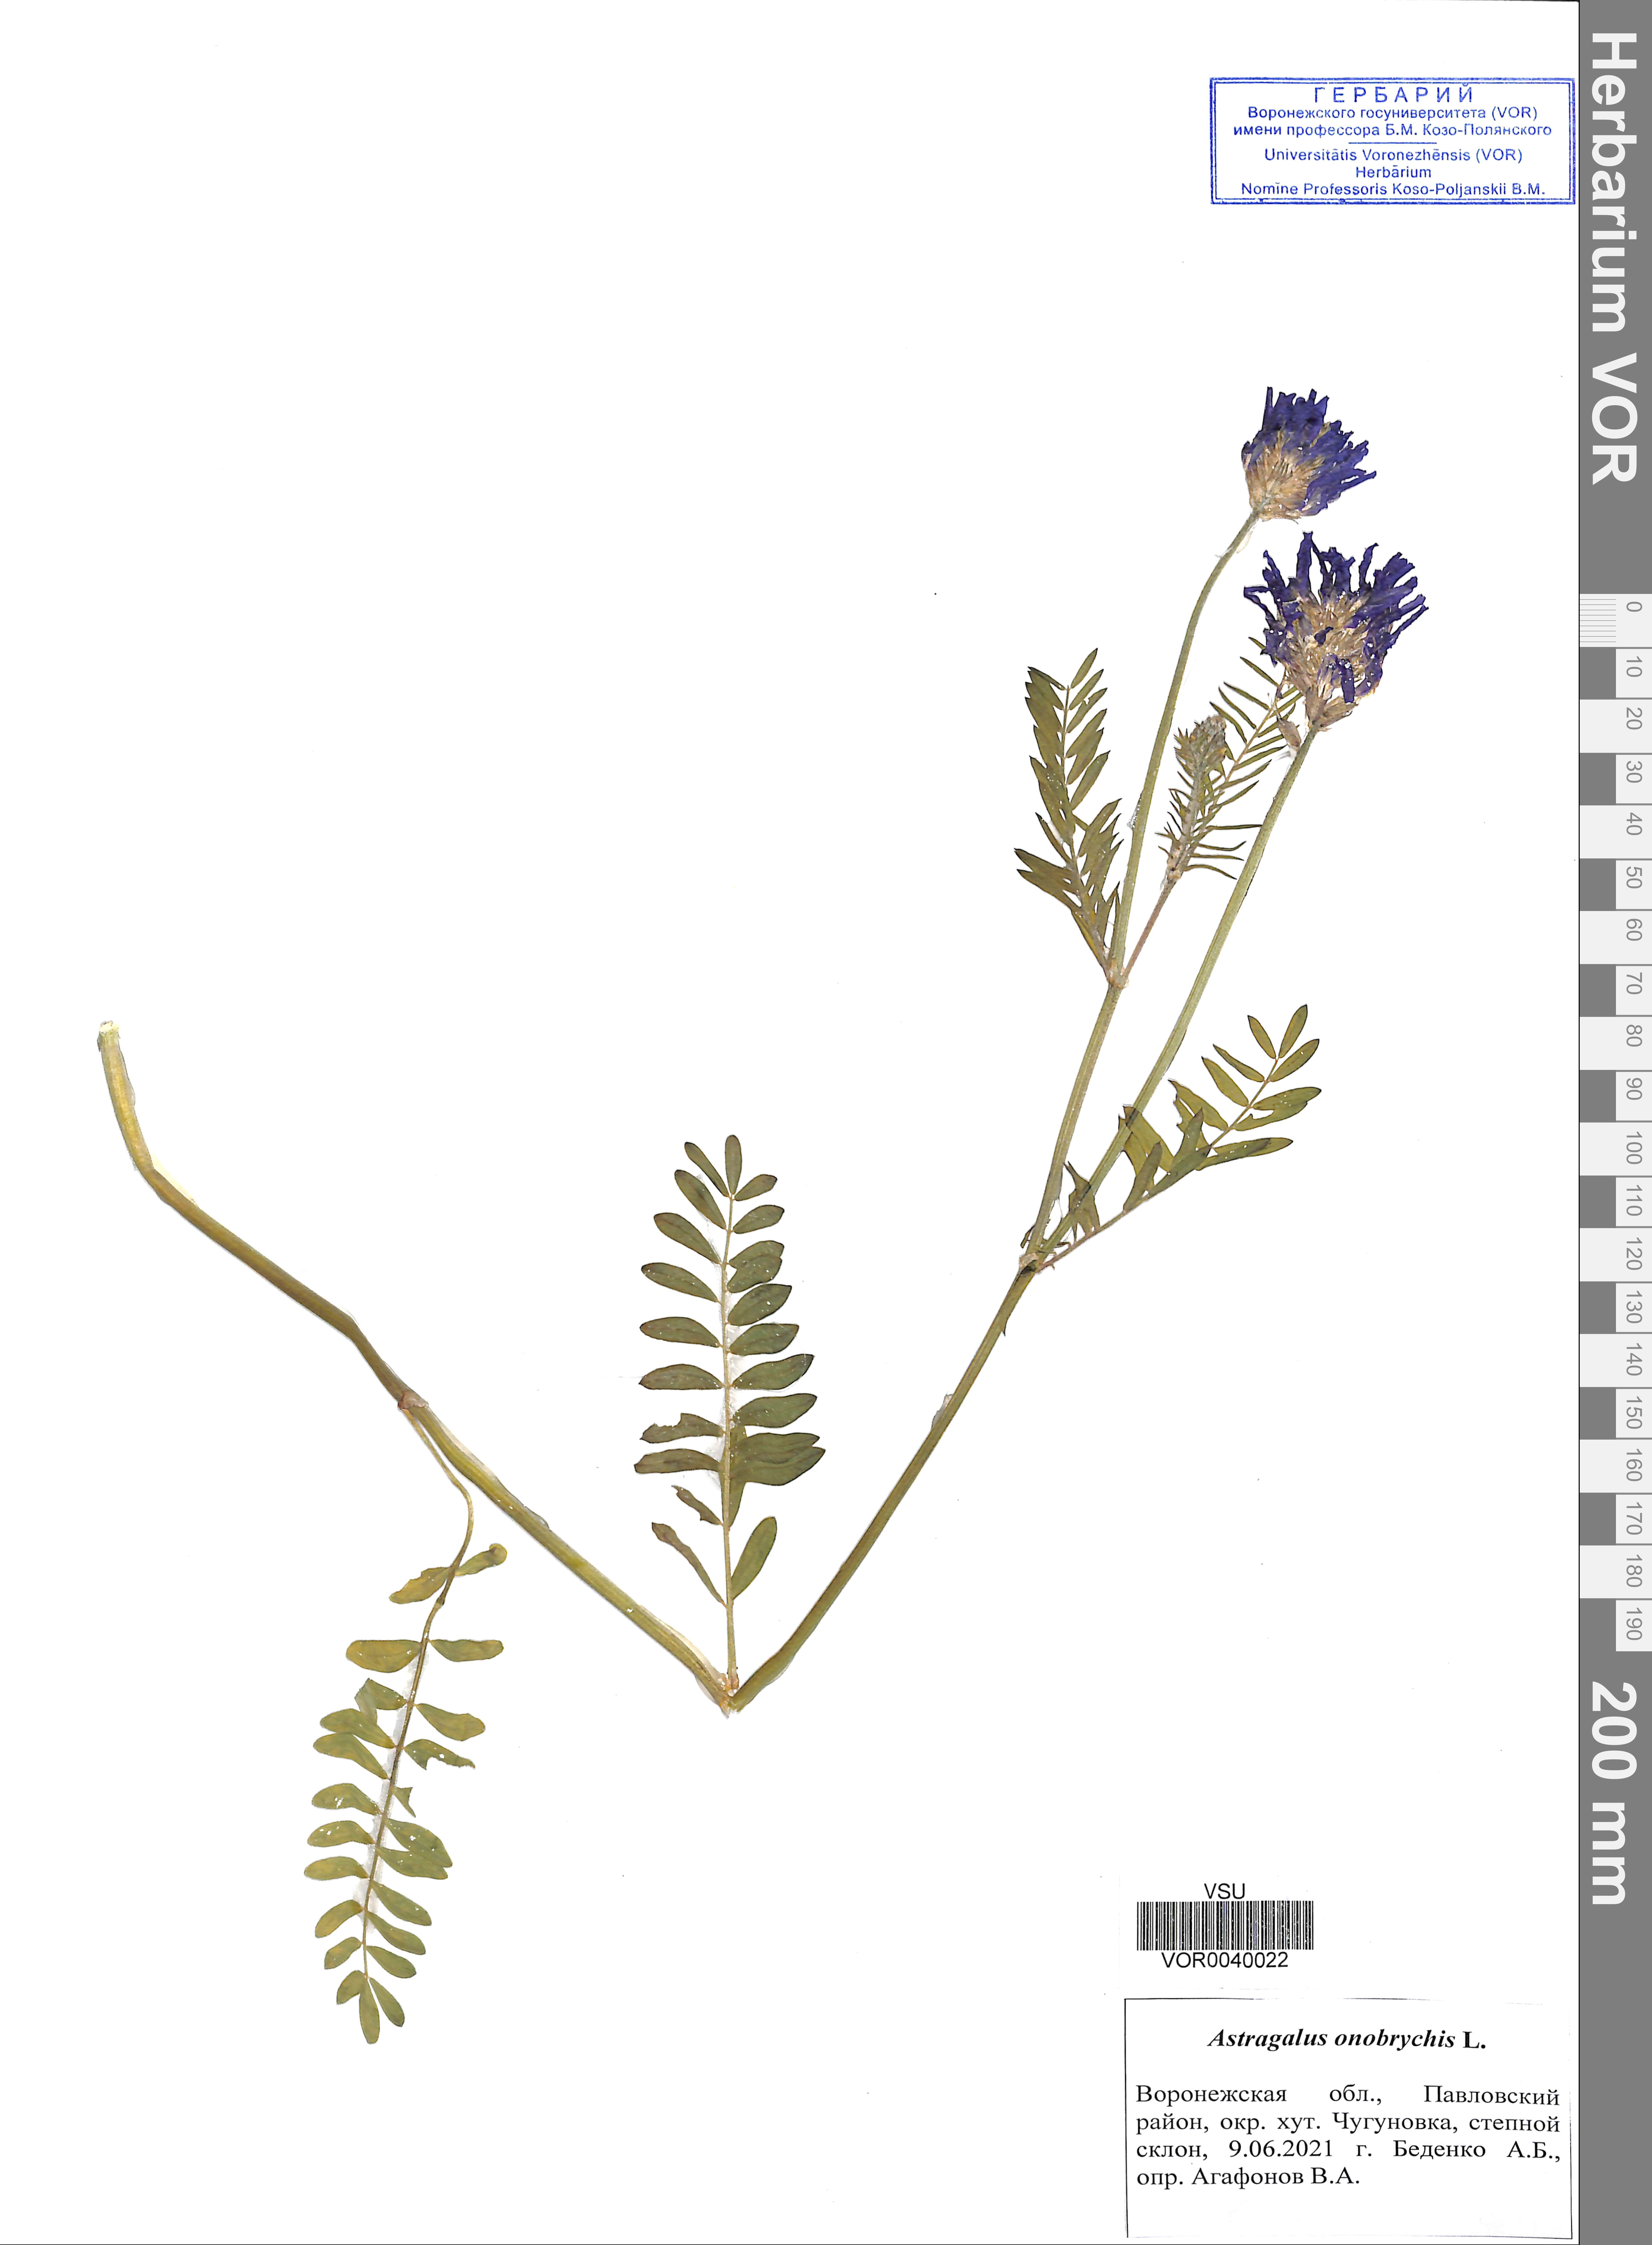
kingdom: Plantae
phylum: Tracheophyta
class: Magnoliopsida
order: Fabales
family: Fabaceae
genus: Astragalus
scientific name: Astragalus onobrychis
